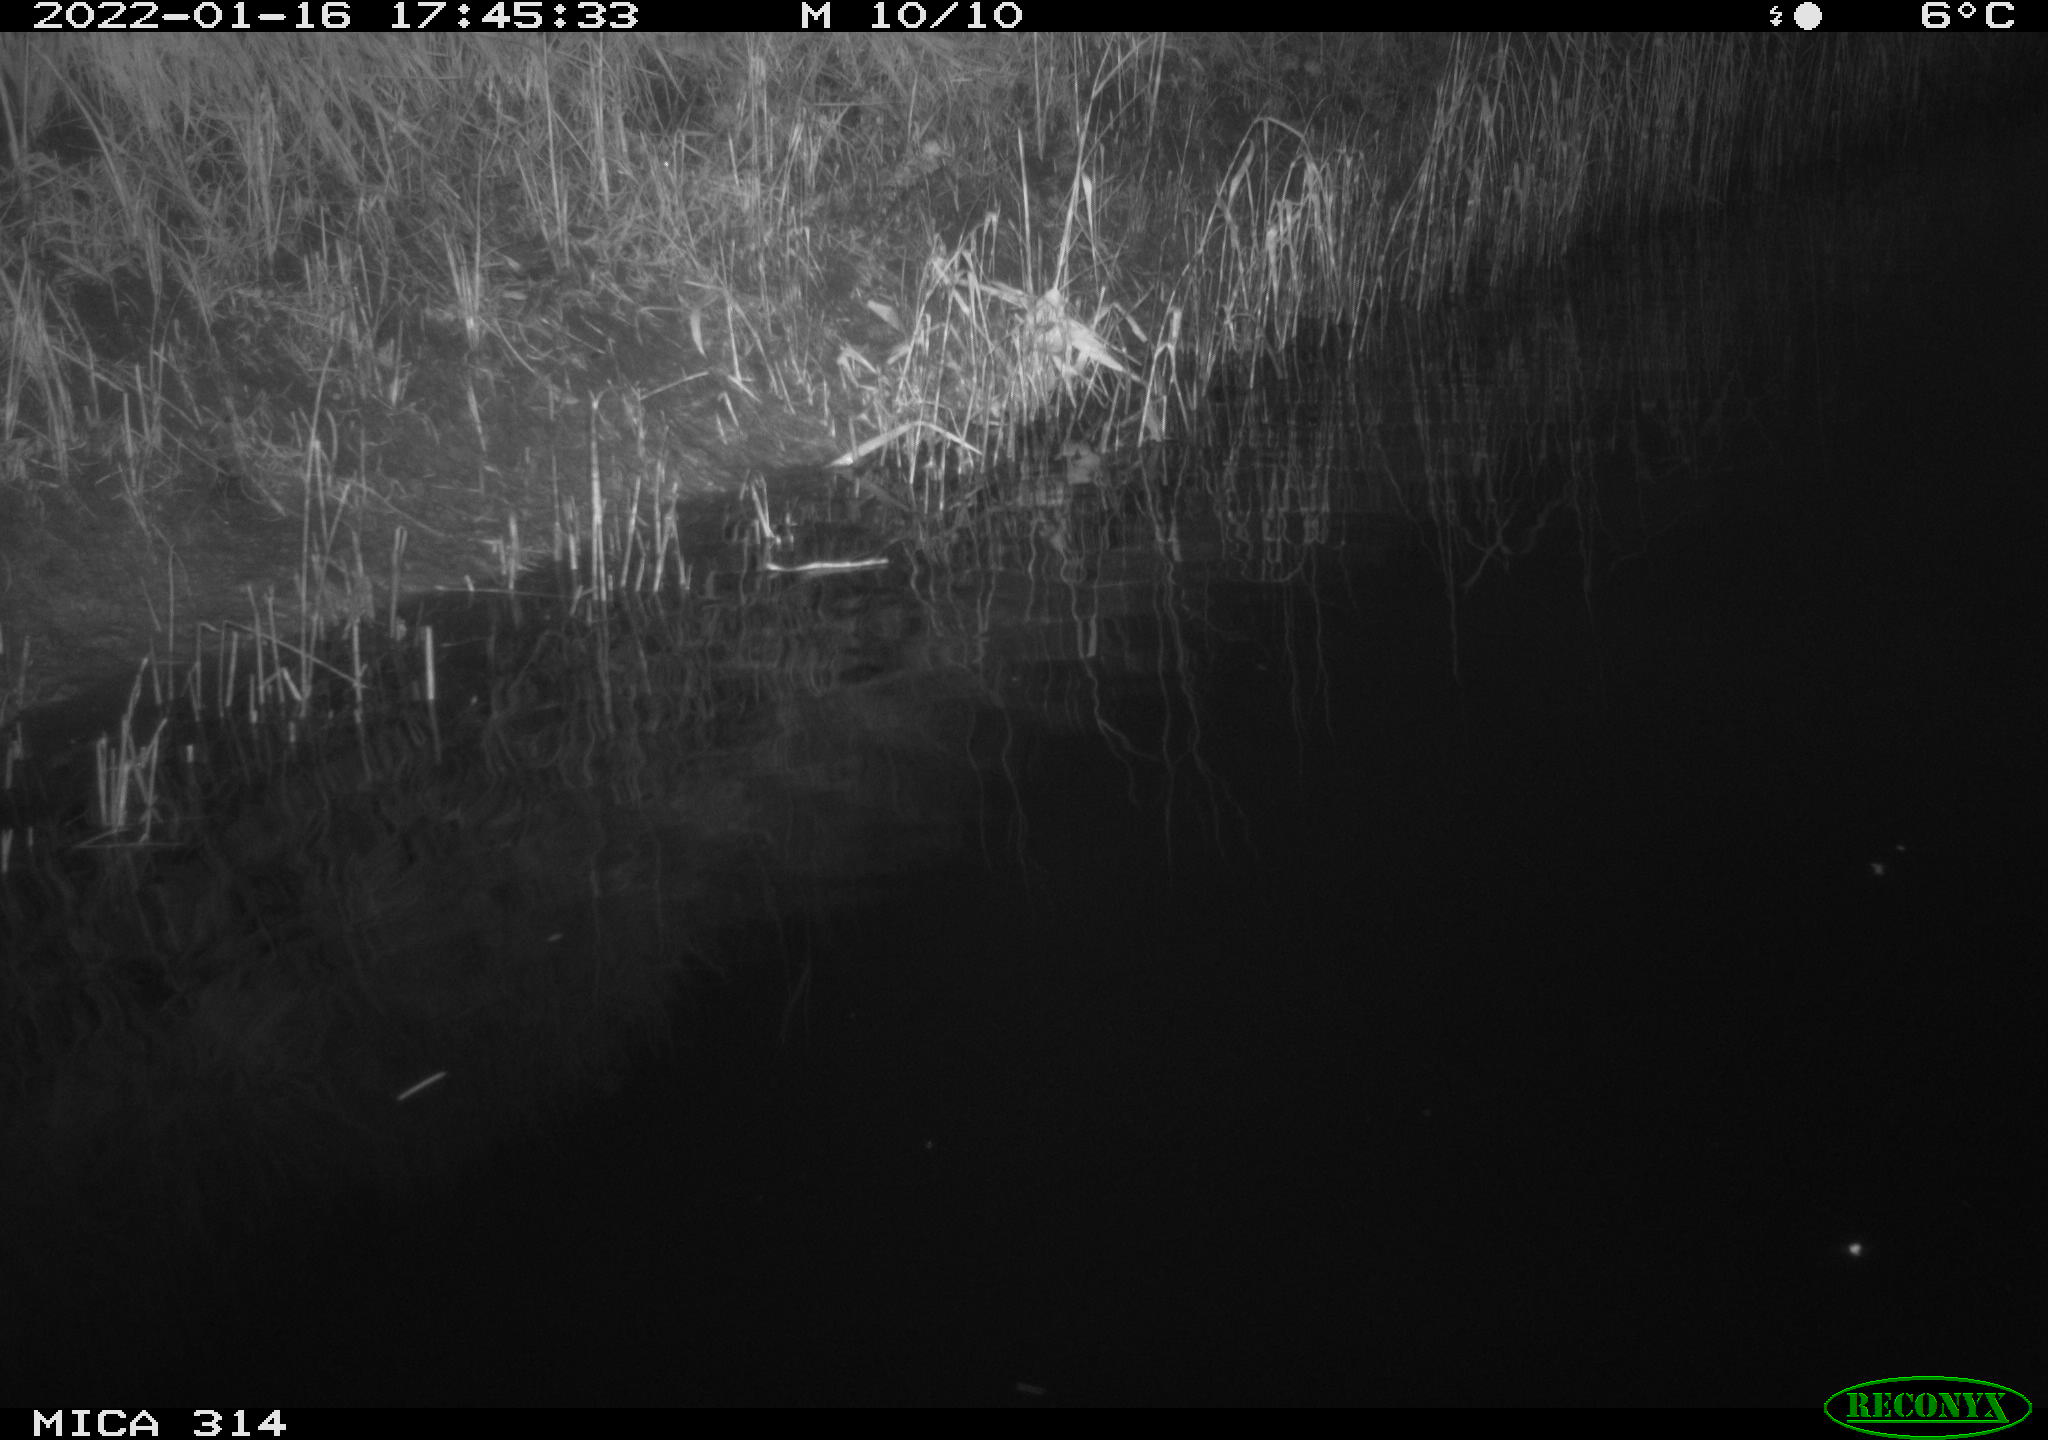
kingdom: Animalia
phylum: Chordata
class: Aves
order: Gruiformes
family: Rallidae
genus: Gallinula
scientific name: Gallinula chloropus
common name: Common moorhen
